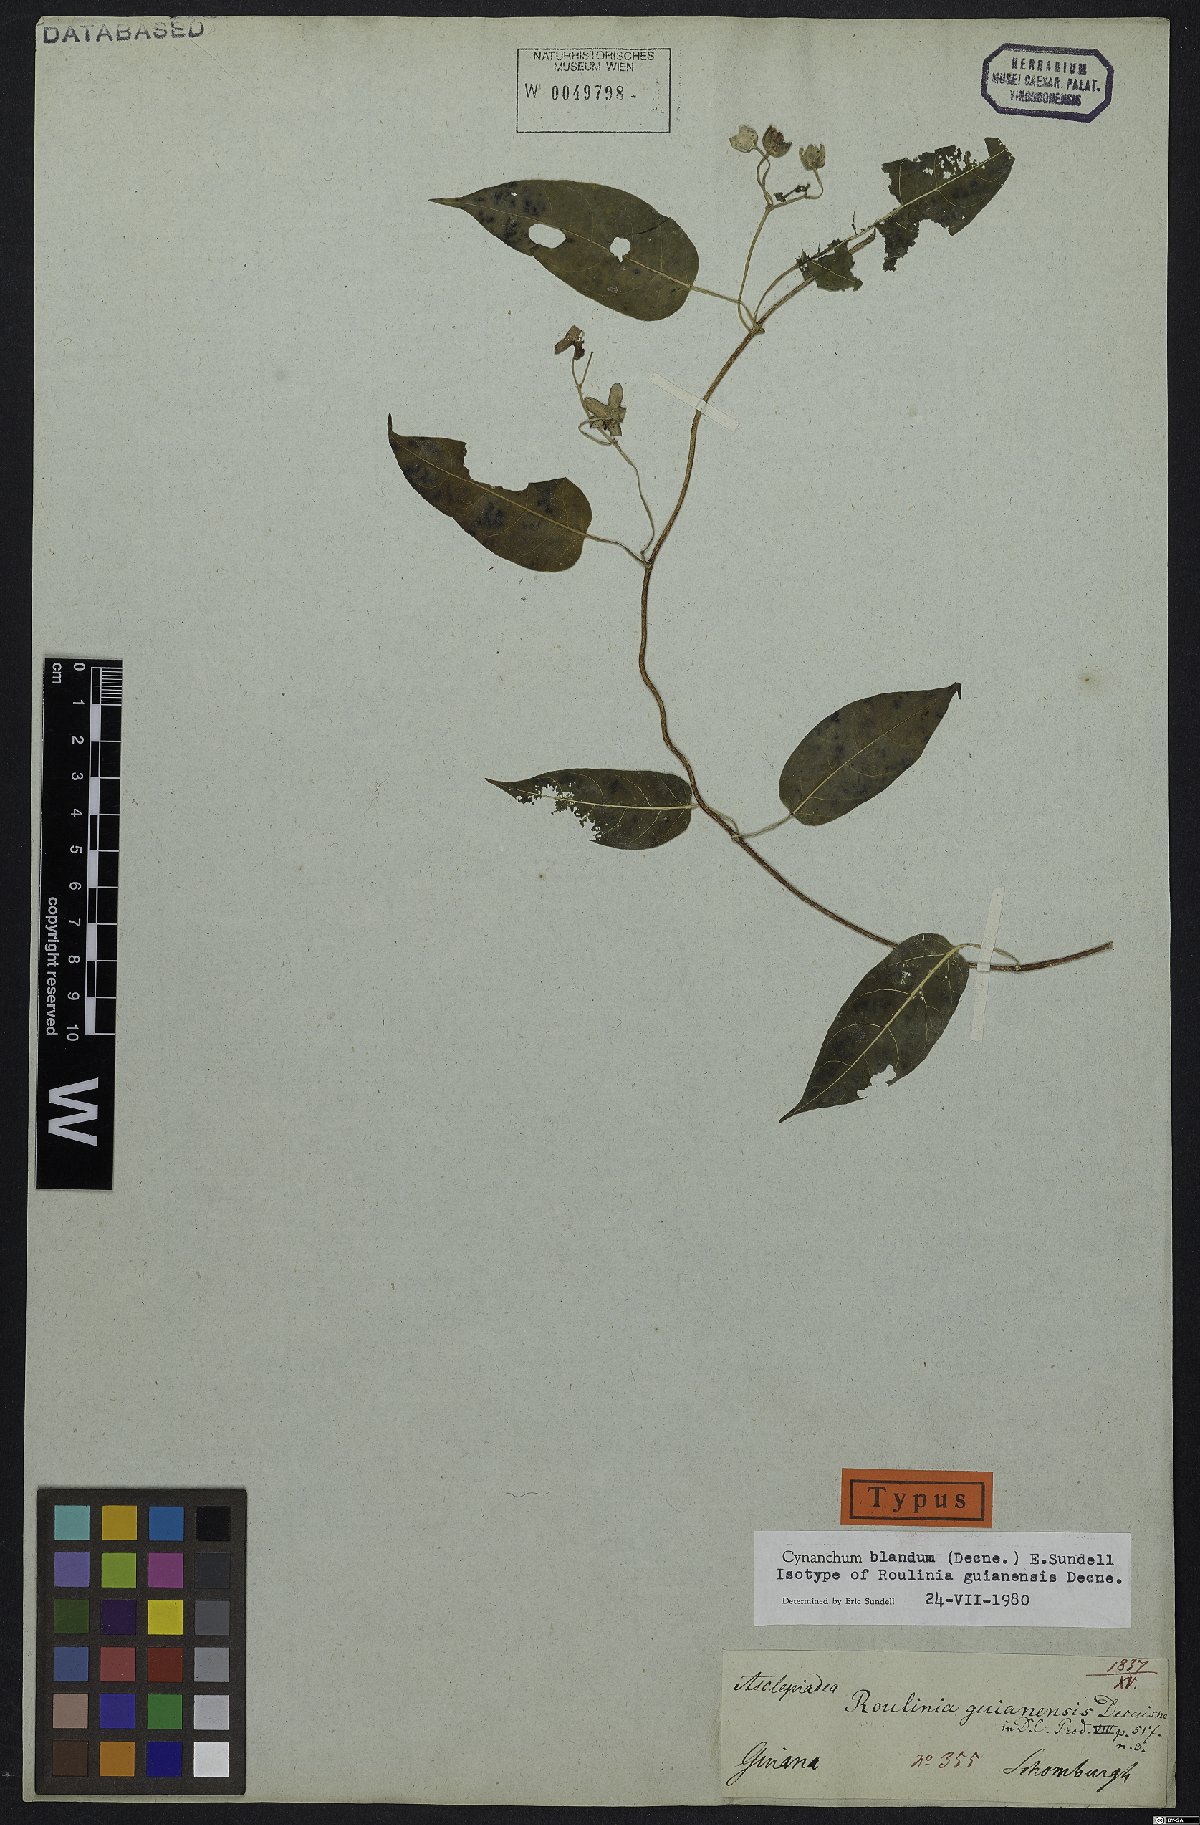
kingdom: Plantae
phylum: Tracheophyta
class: Magnoliopsida
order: Gentianales
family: Apocynaceae
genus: Cynanchum
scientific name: Cynanchum blandum
